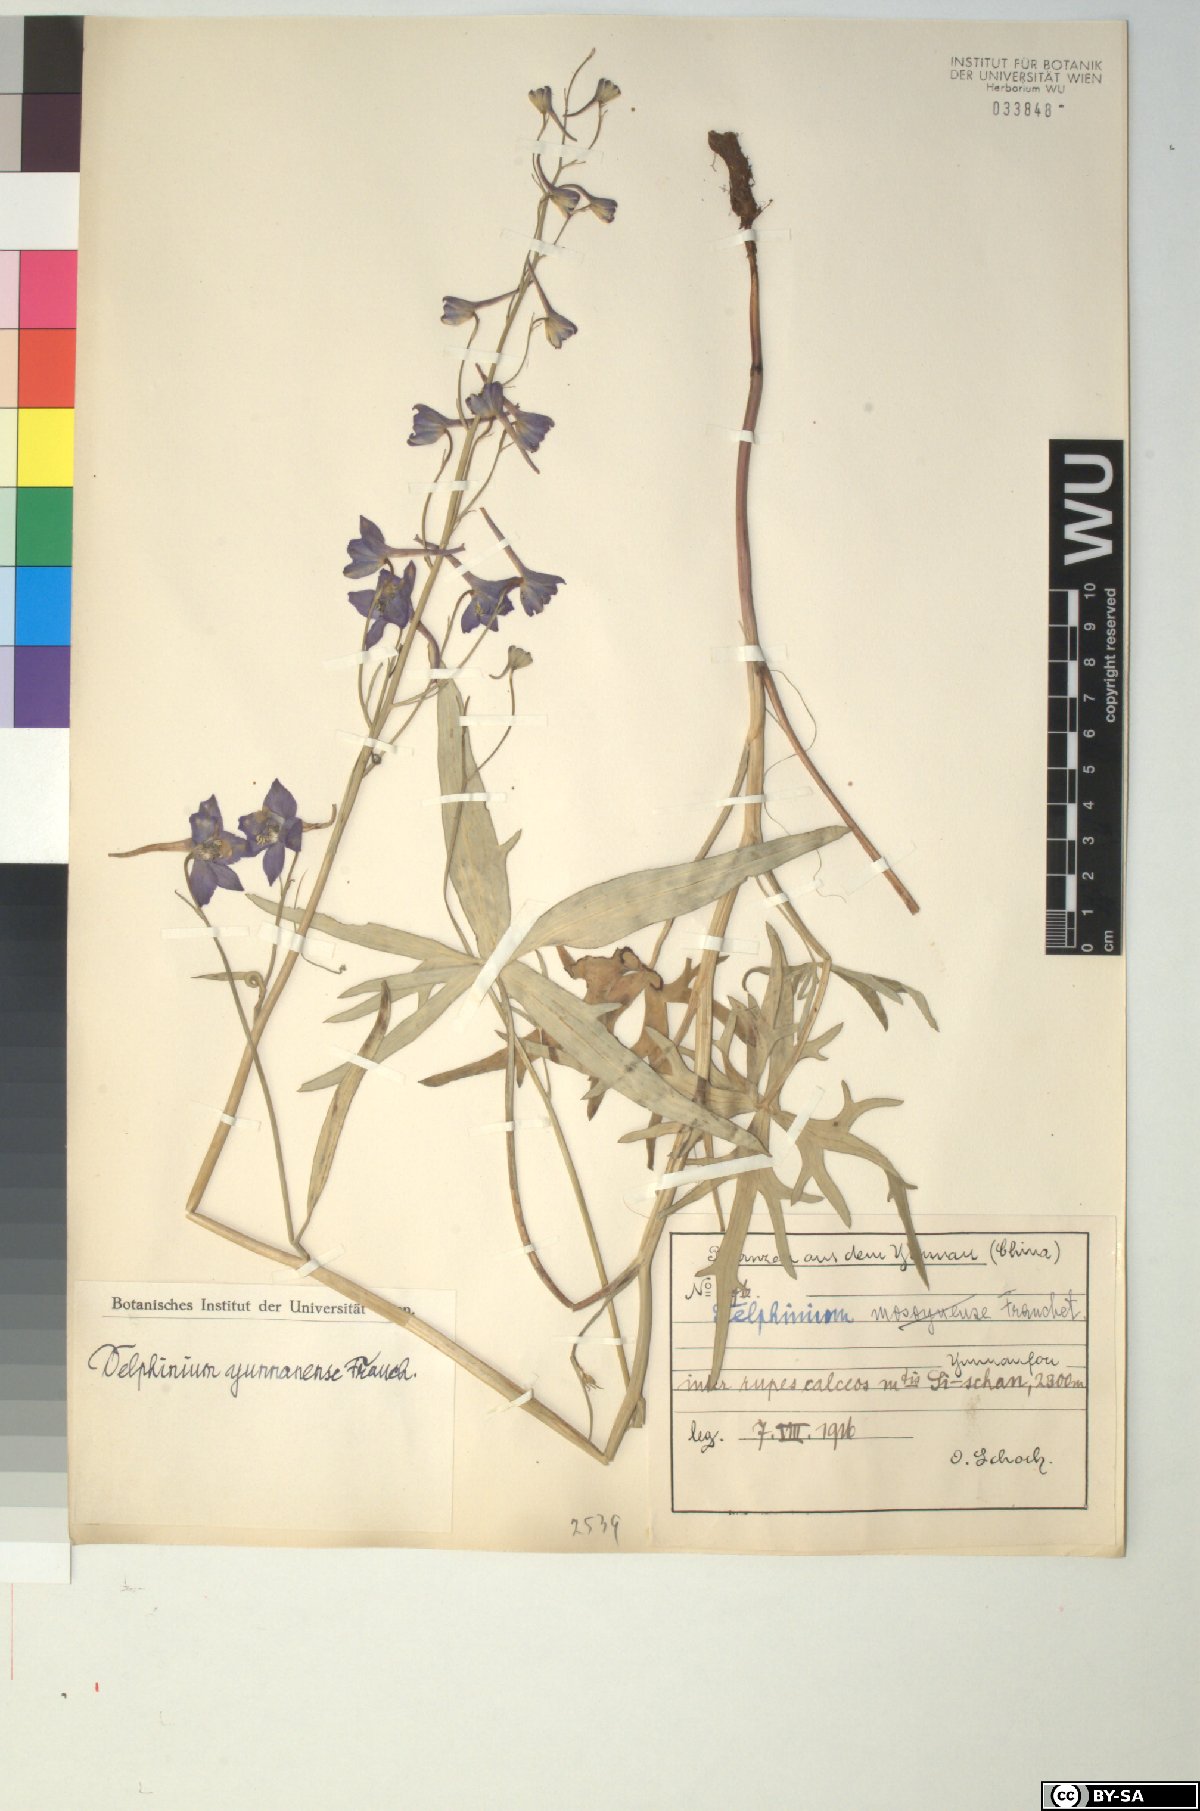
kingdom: Plantae
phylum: Tracheophyta
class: Magnoliopsida
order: Ranunculales
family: Ranunculaceae
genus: Delphinium
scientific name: Delphinium yunnanense
